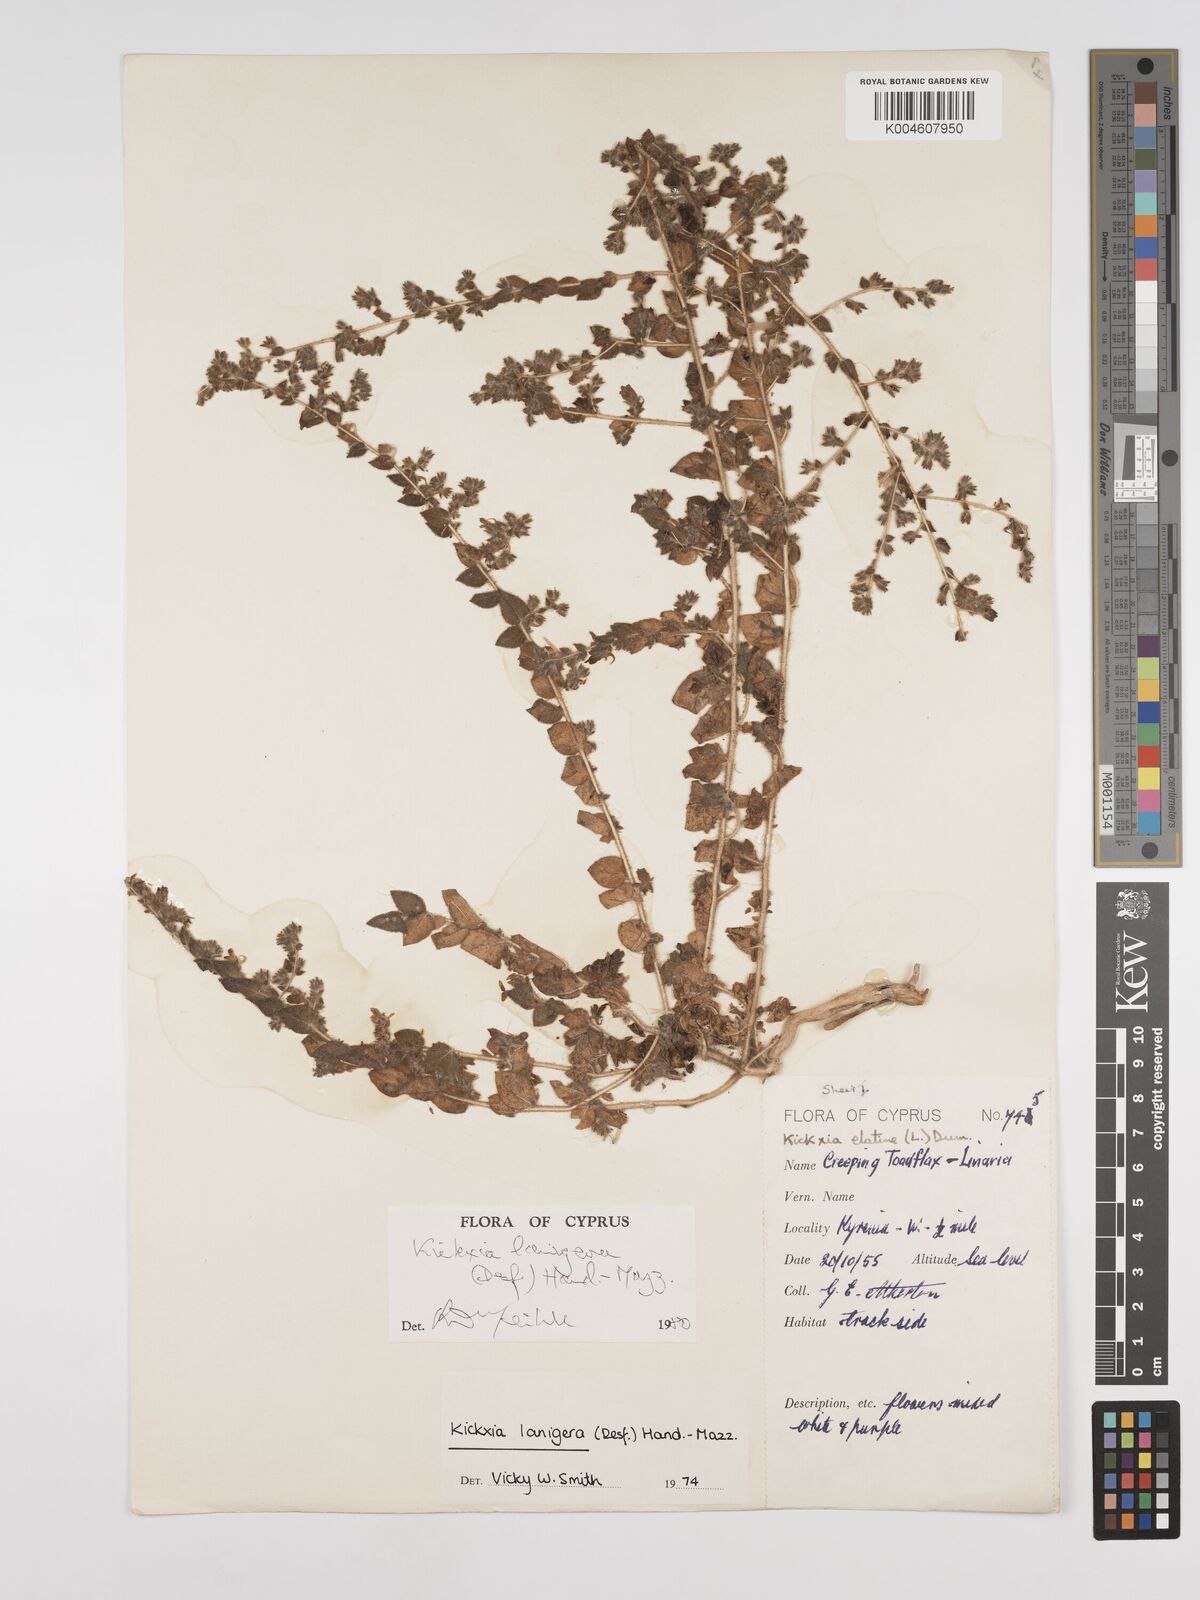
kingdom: Plantae
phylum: Tracheophyta
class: Magnoliopsida
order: Lamiales
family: Plantaginaceae
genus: Kickxia
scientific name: Kickxia lanigera
